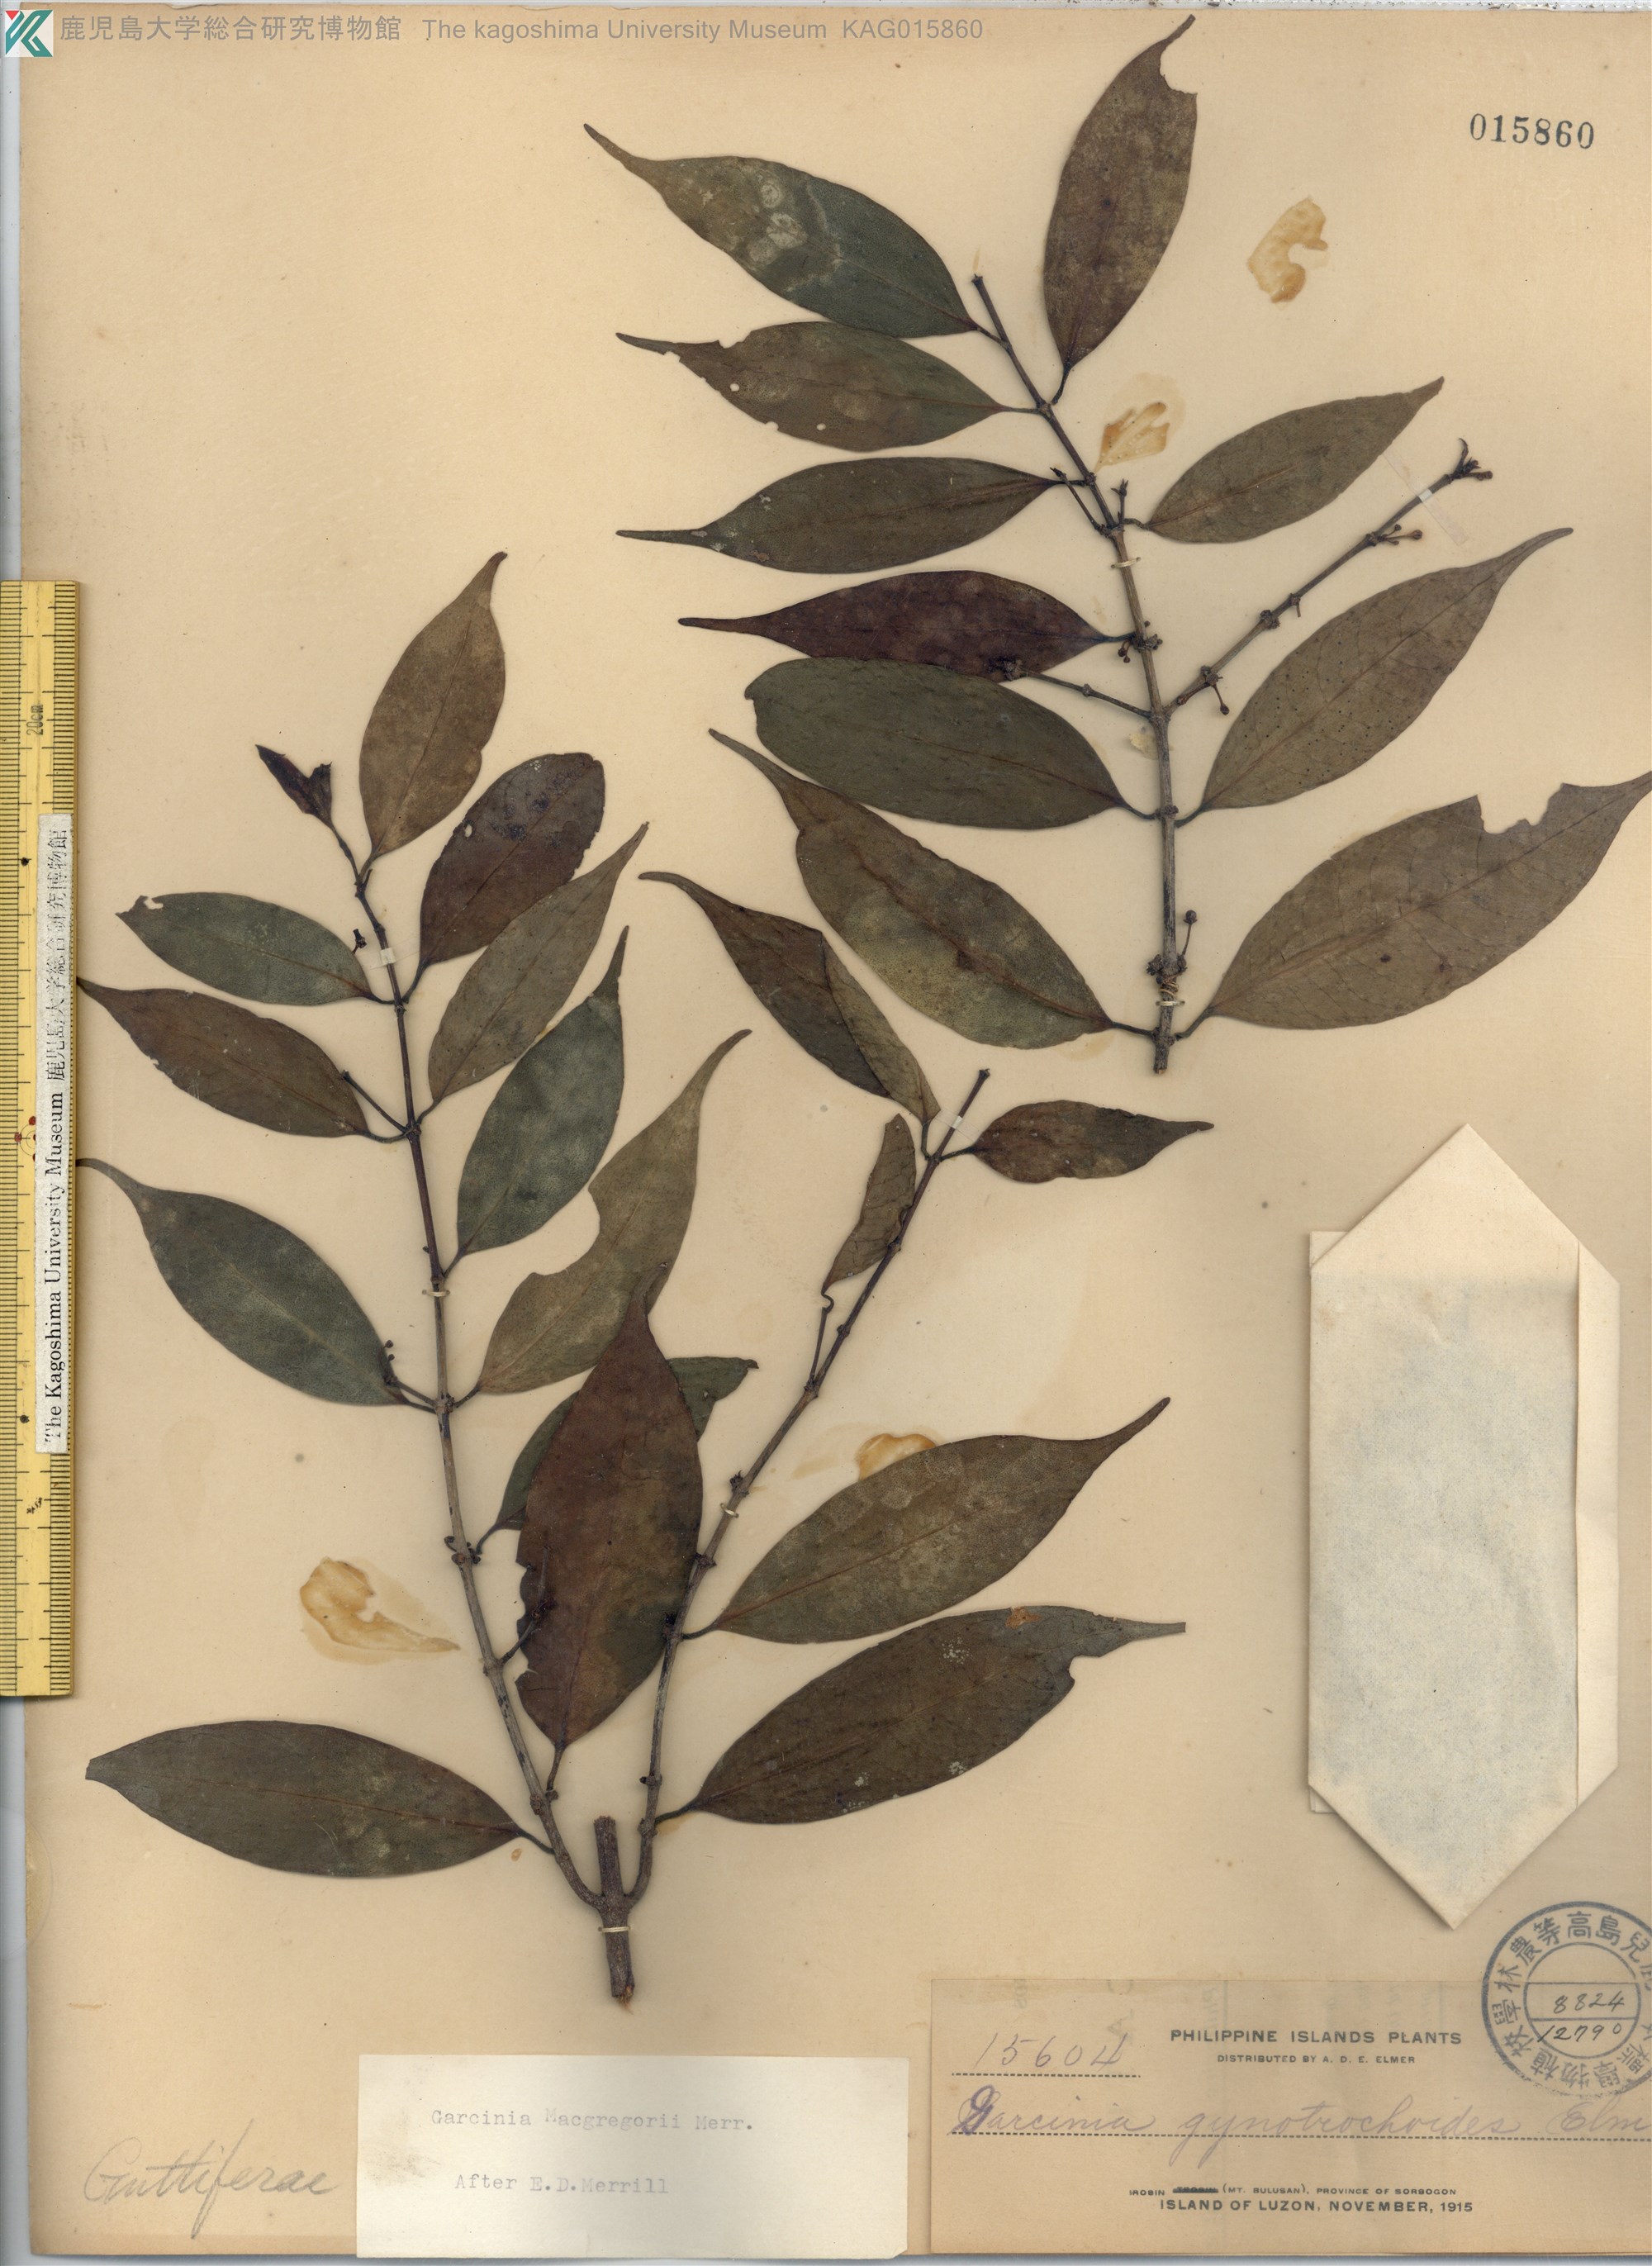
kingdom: Plantae
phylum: Tracheophyta
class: Magnoliopsida
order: Malpighiales
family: Clusiaceae
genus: Garcinia
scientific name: Garcinia macgregorii
